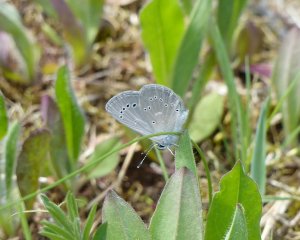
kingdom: Animalia
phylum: Arthropoda
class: Insecta
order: Lepidoptera
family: Lycaenidae
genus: Glaucopsyche
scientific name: Glaucopsyche lygdamus
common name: Silvery Blue
